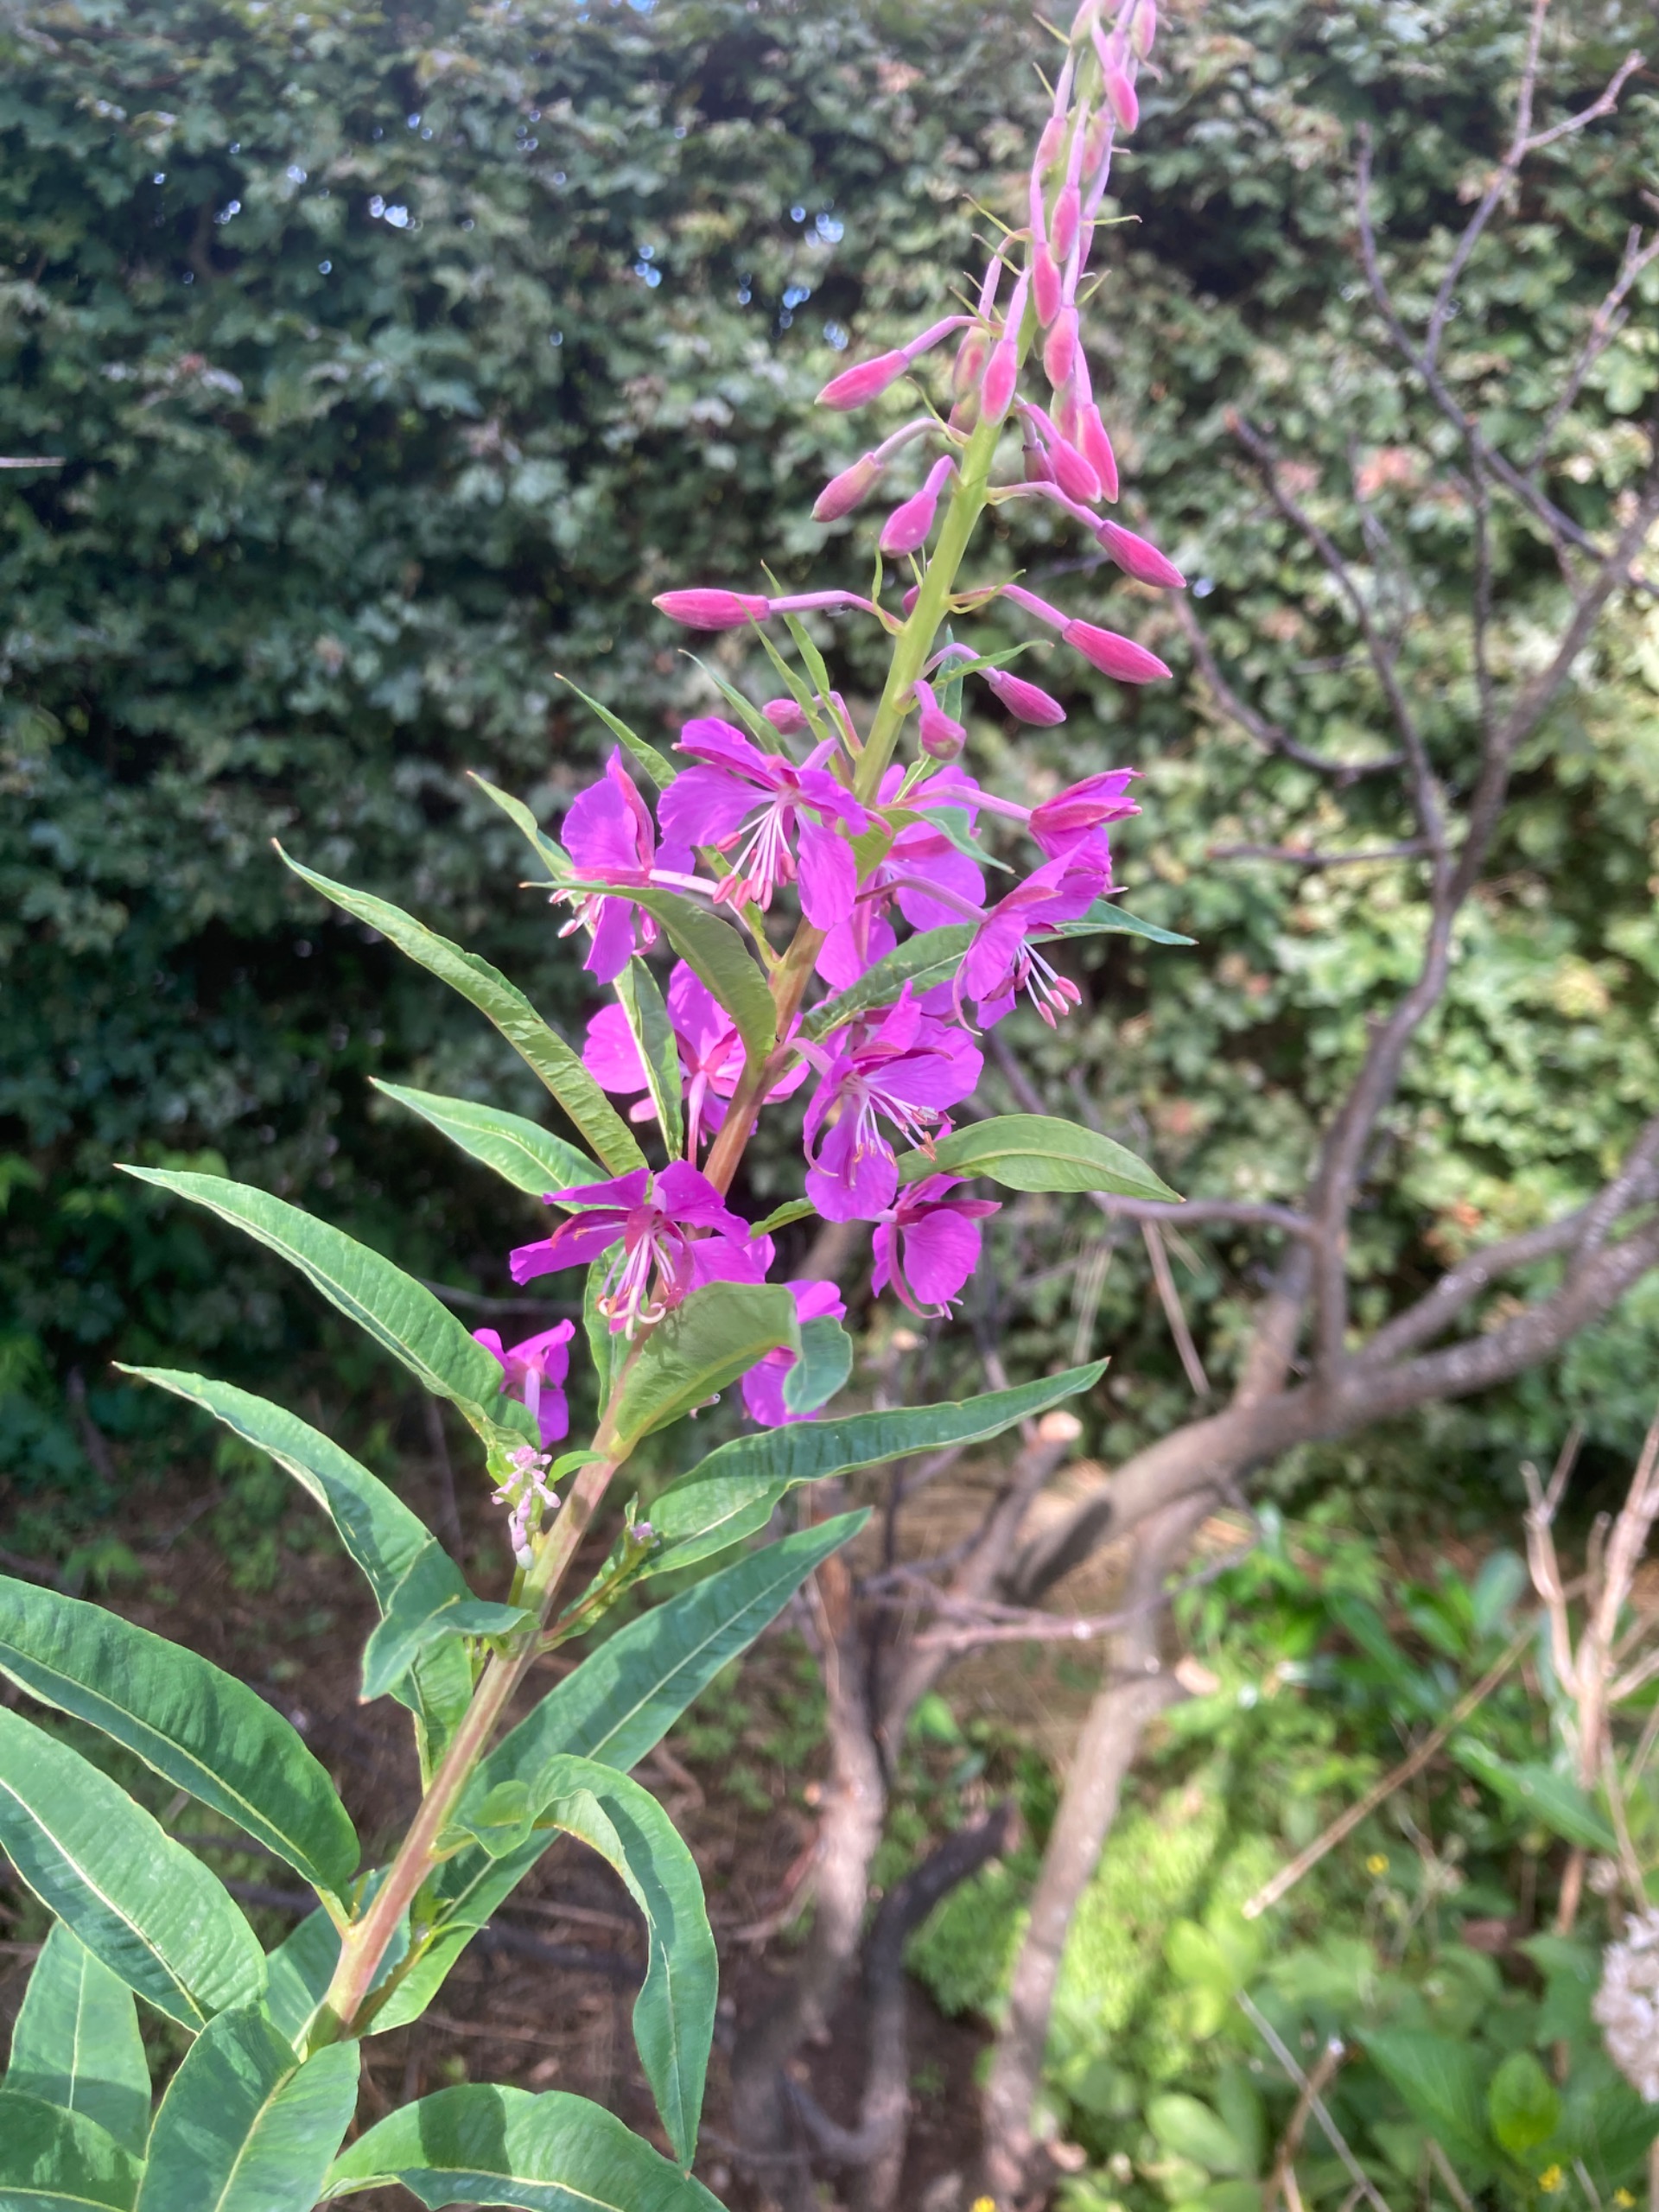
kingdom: Plantae
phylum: Tracheophyta
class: Magnoliopsida
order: Myrtales
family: Onagraceae
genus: Chamaenerion
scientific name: Chamaenerion angustifolium
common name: Gederams
